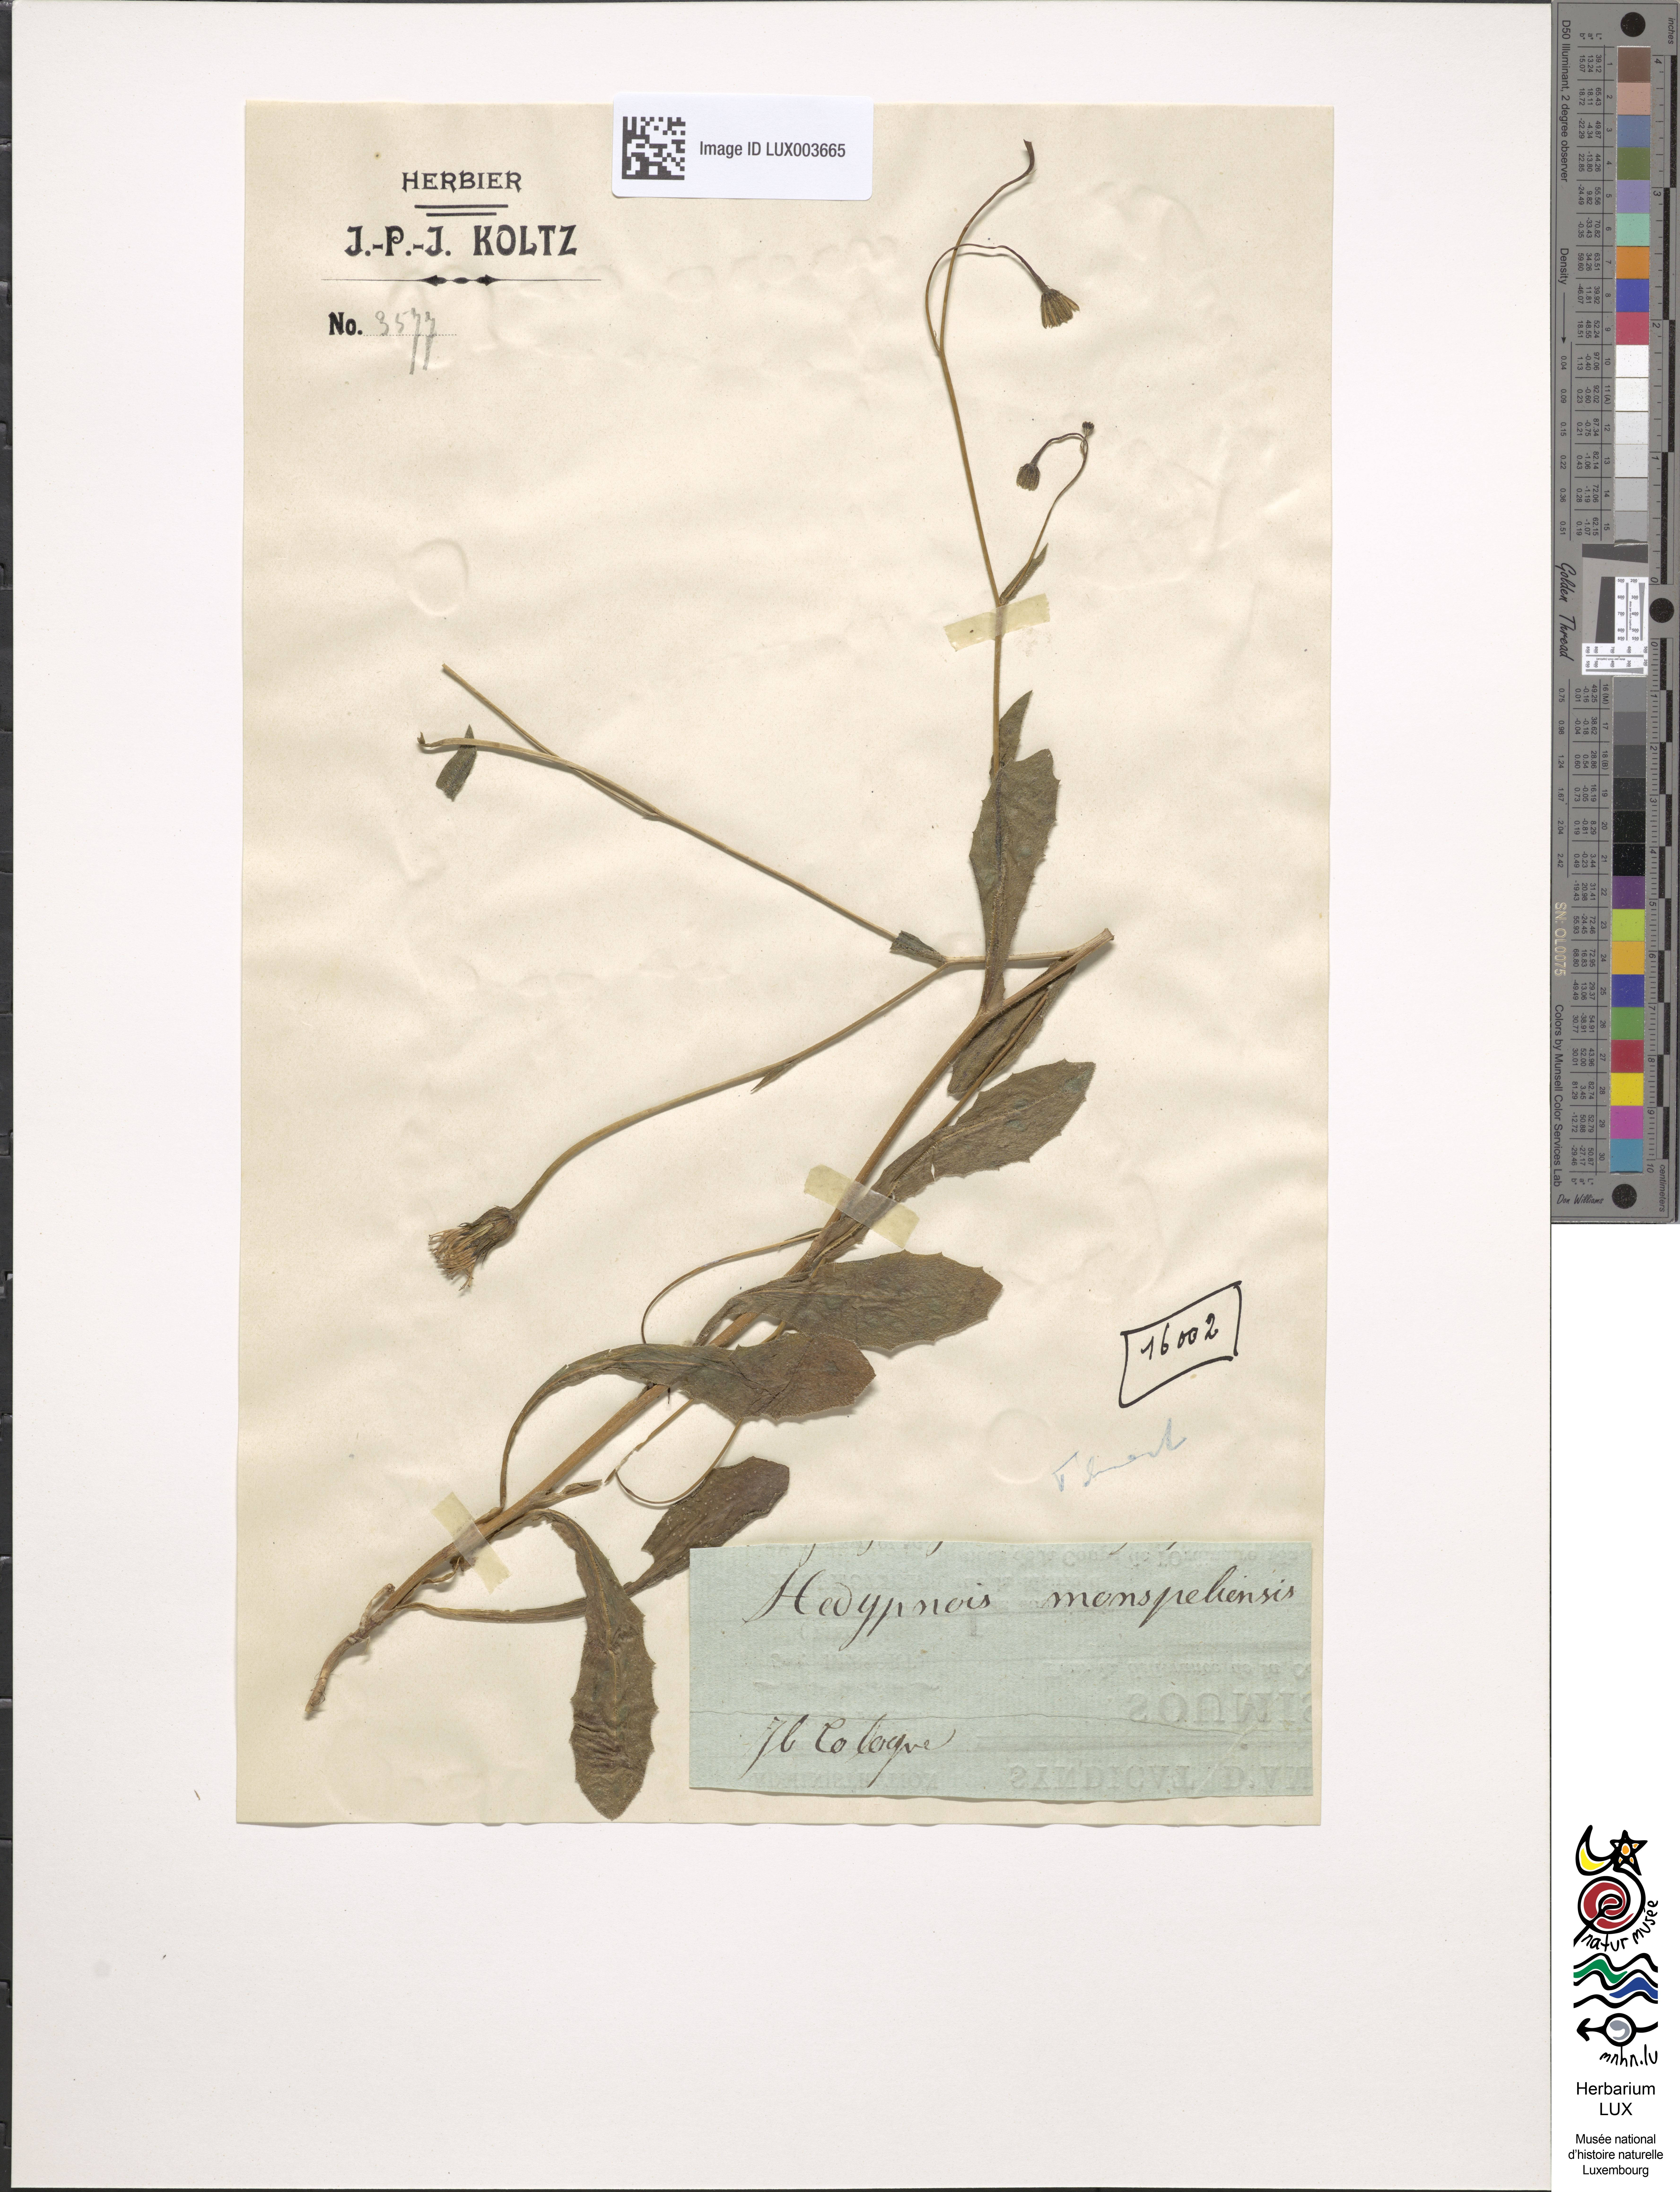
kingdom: Plantae
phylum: Tracheophyta
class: Magnoliopsida
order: Asterales
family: Asteraceae
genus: Hedypnois
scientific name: Hedypnois rhagadioloides
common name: Cretan weed
